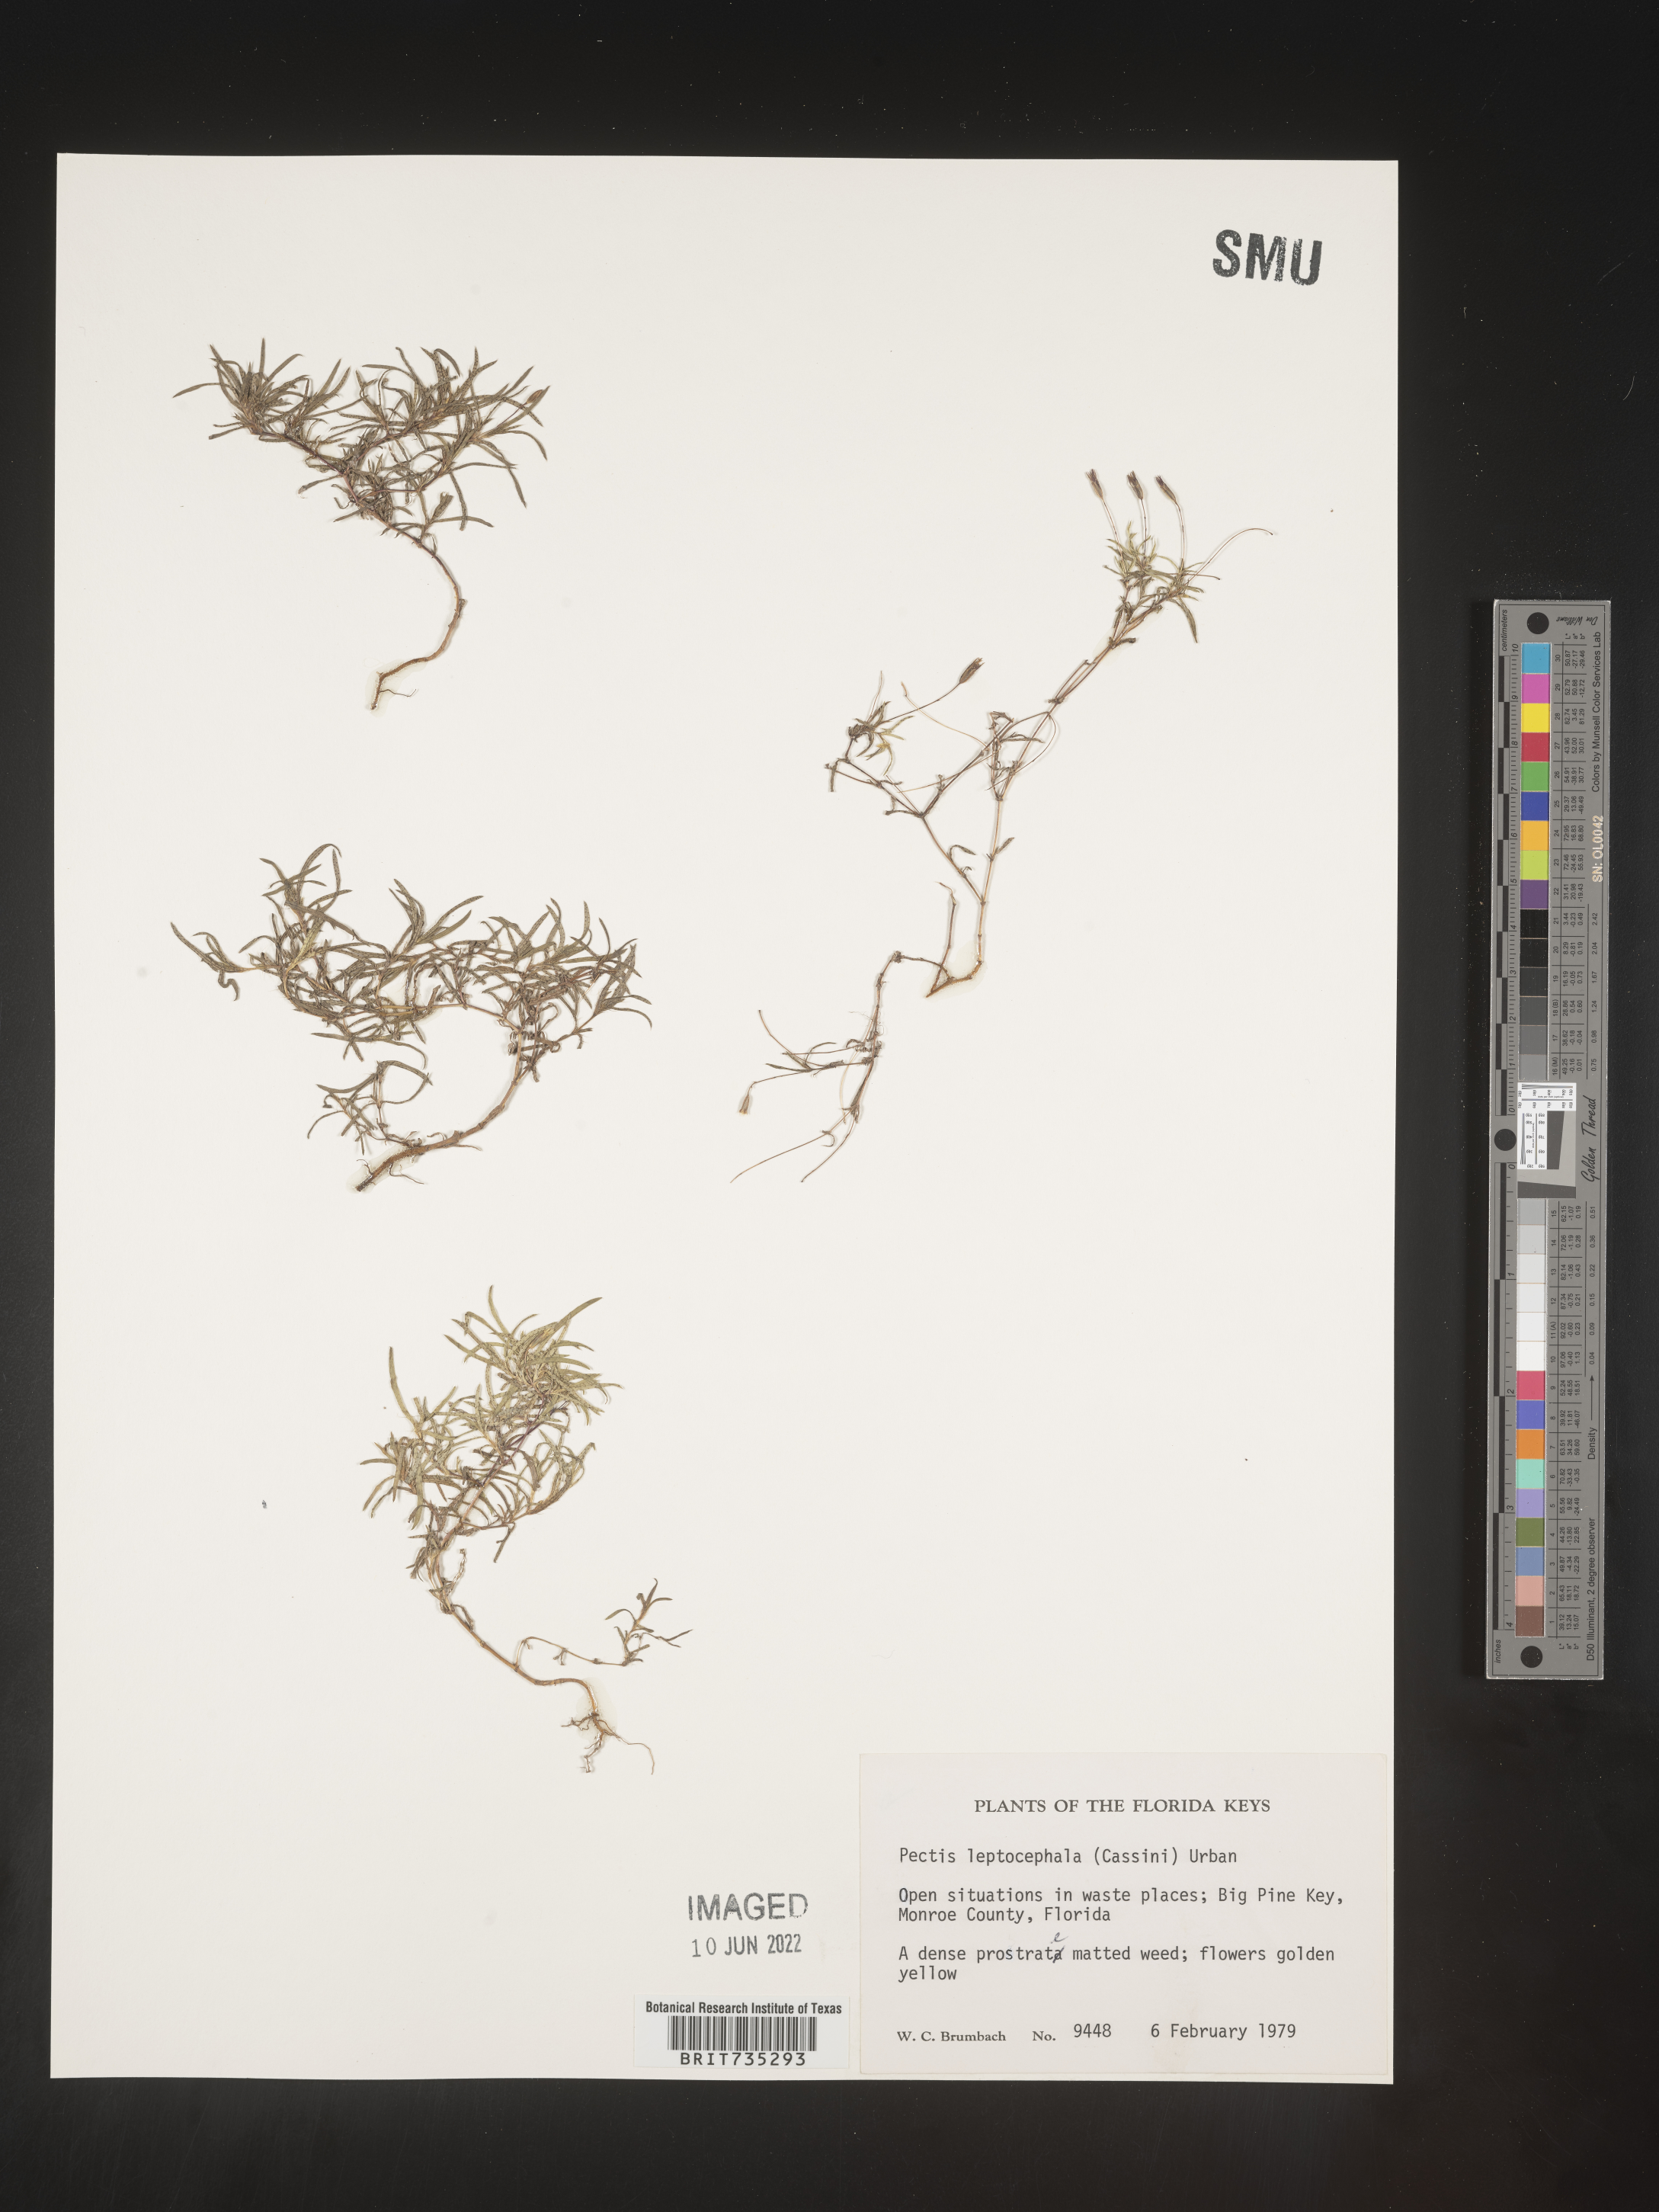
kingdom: Plantae
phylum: Tracheophyta
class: Magnoliopsida
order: Asterales
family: Asteraceae
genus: Pectis
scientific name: Pectis glaucescens
